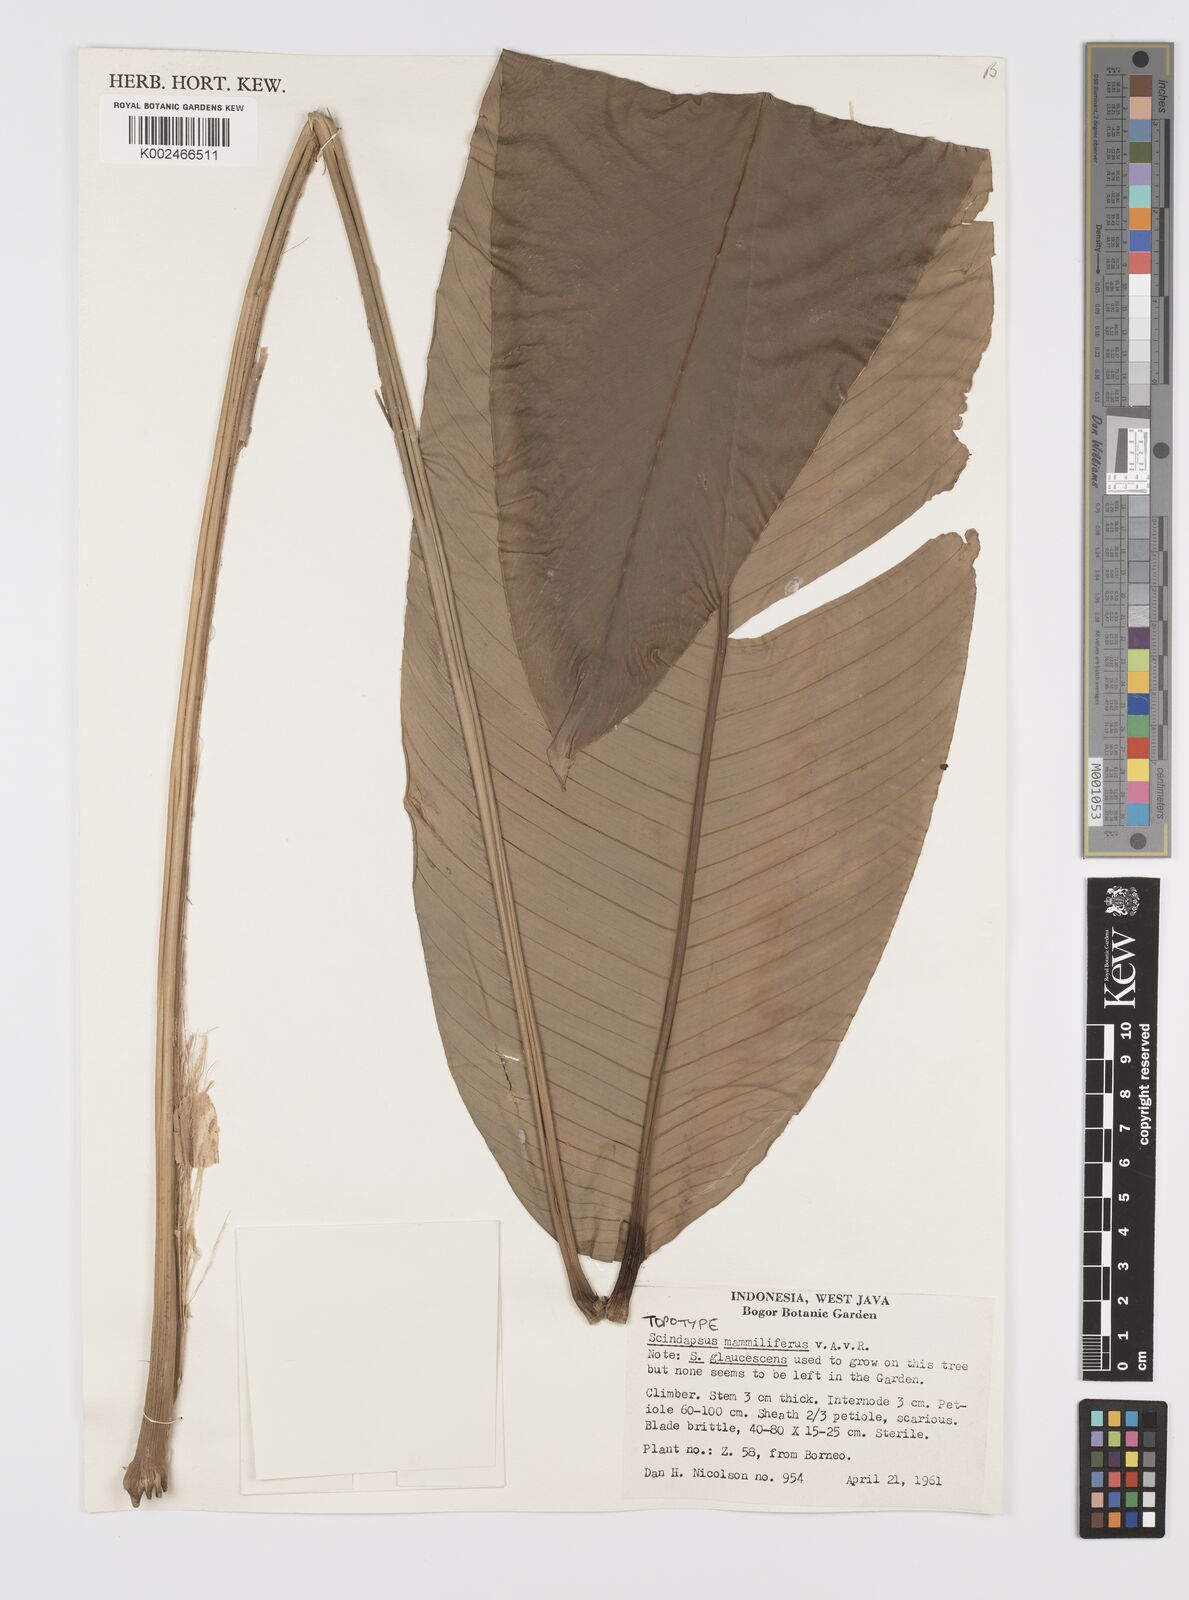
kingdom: Plantae
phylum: Tracheophyta
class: Liliopsida
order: Alismatales
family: Araceae
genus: Scindapsus
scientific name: Scindapsus glaucescens
